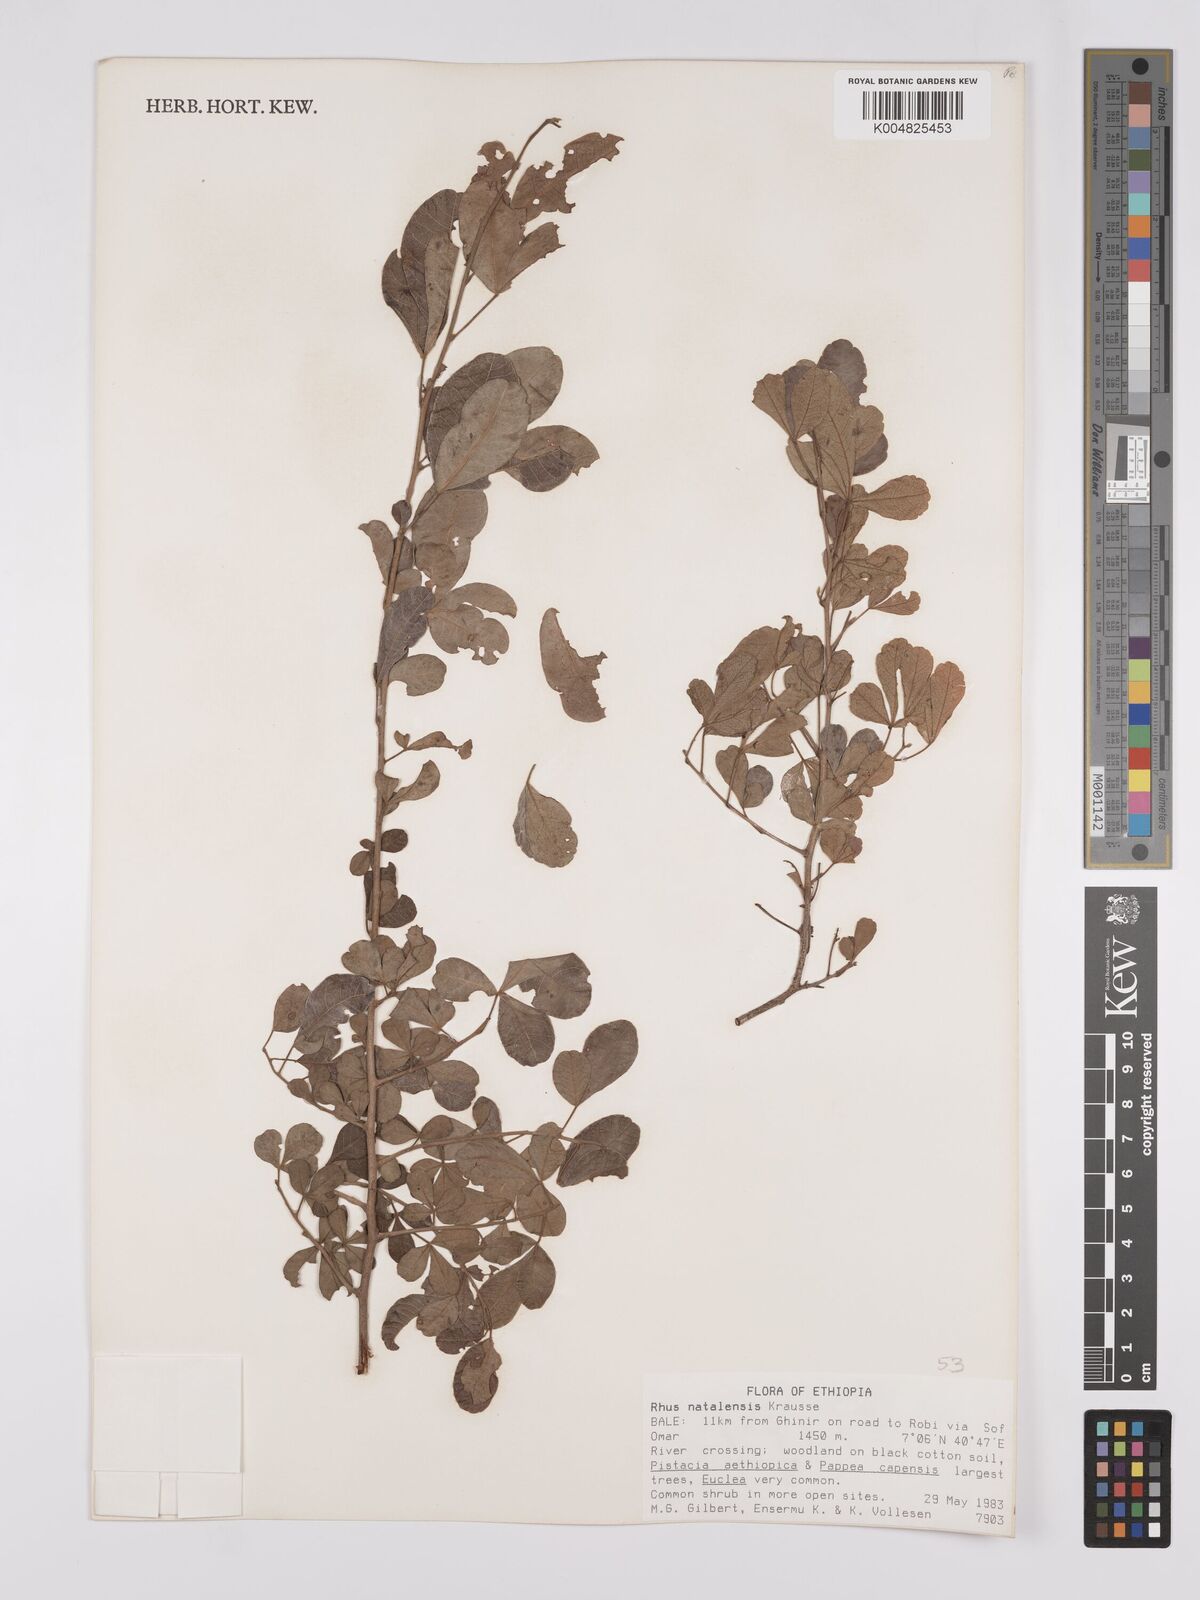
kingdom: Plantae
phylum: Tracheophyta
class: Magnoliopsida
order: Sapindales
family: Anacardiaceae
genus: Searsia
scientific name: Searsia natalensis
